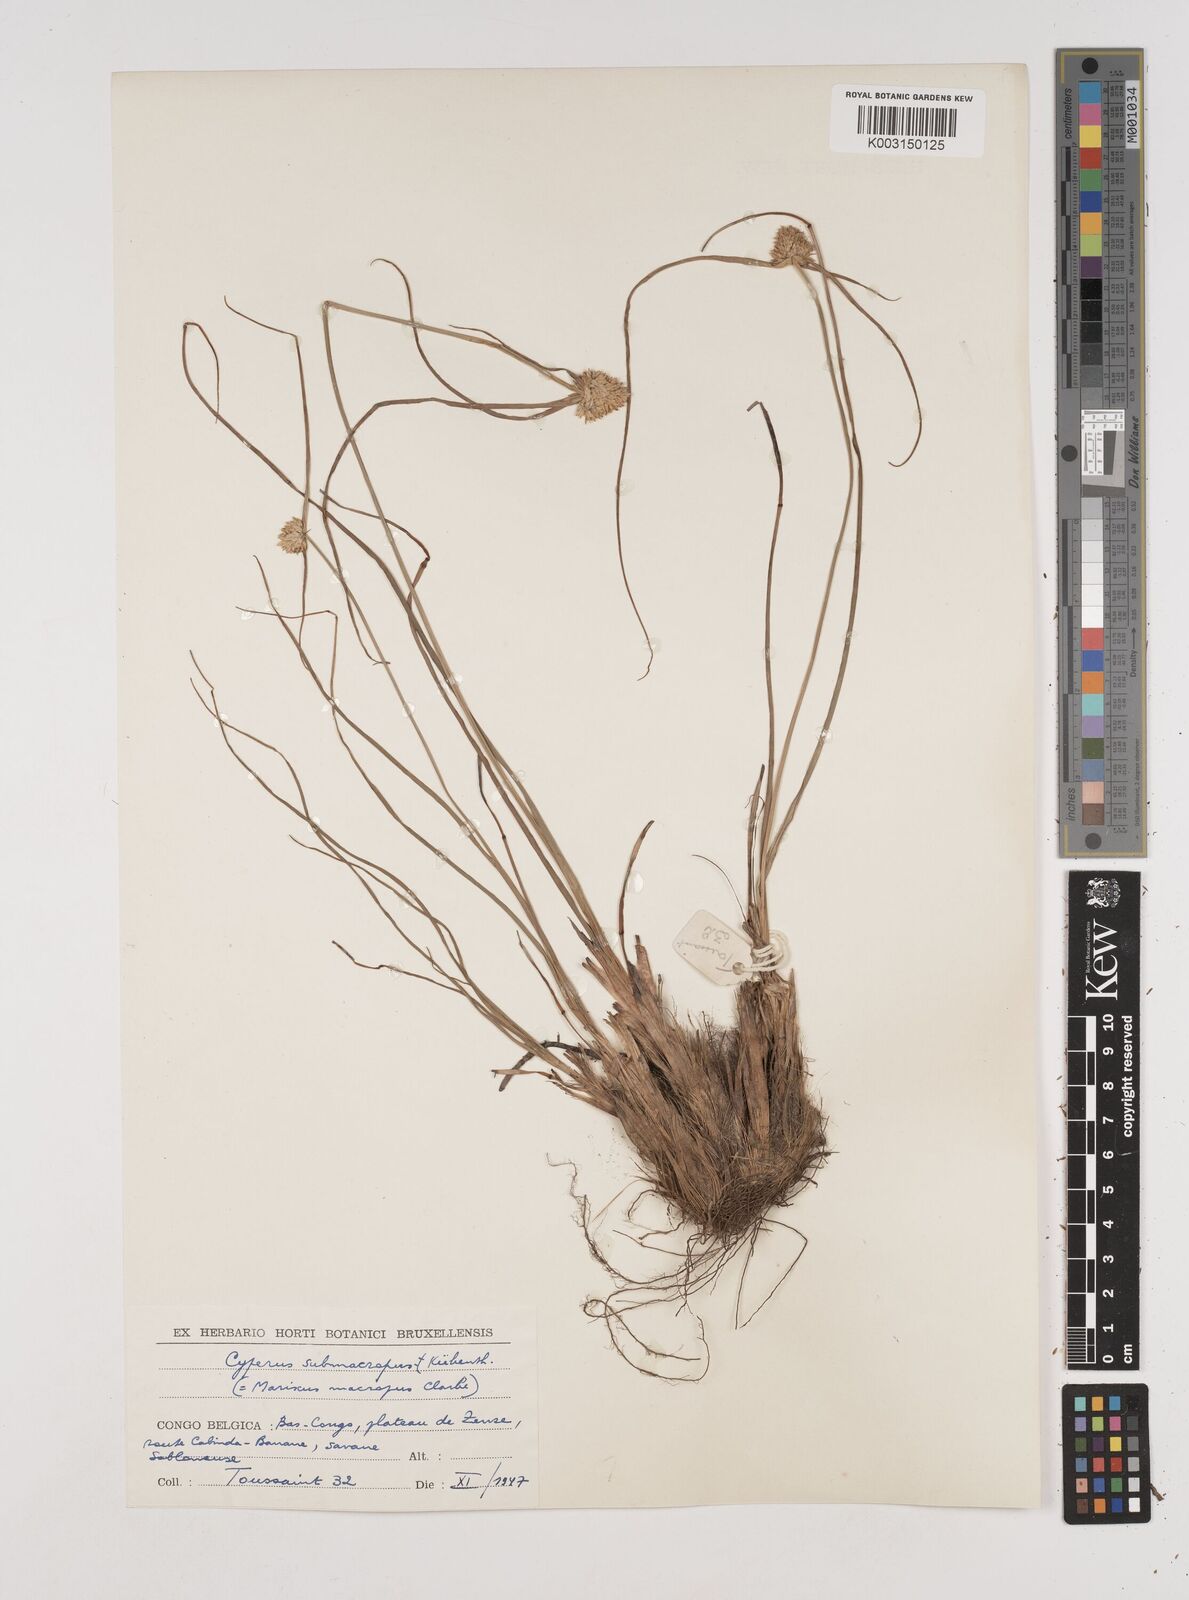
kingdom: Plantae
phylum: Tracheophyta
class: Liliopsida
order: Poales
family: Cyperaceae
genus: Cyperus
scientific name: Cyperus mollipes
